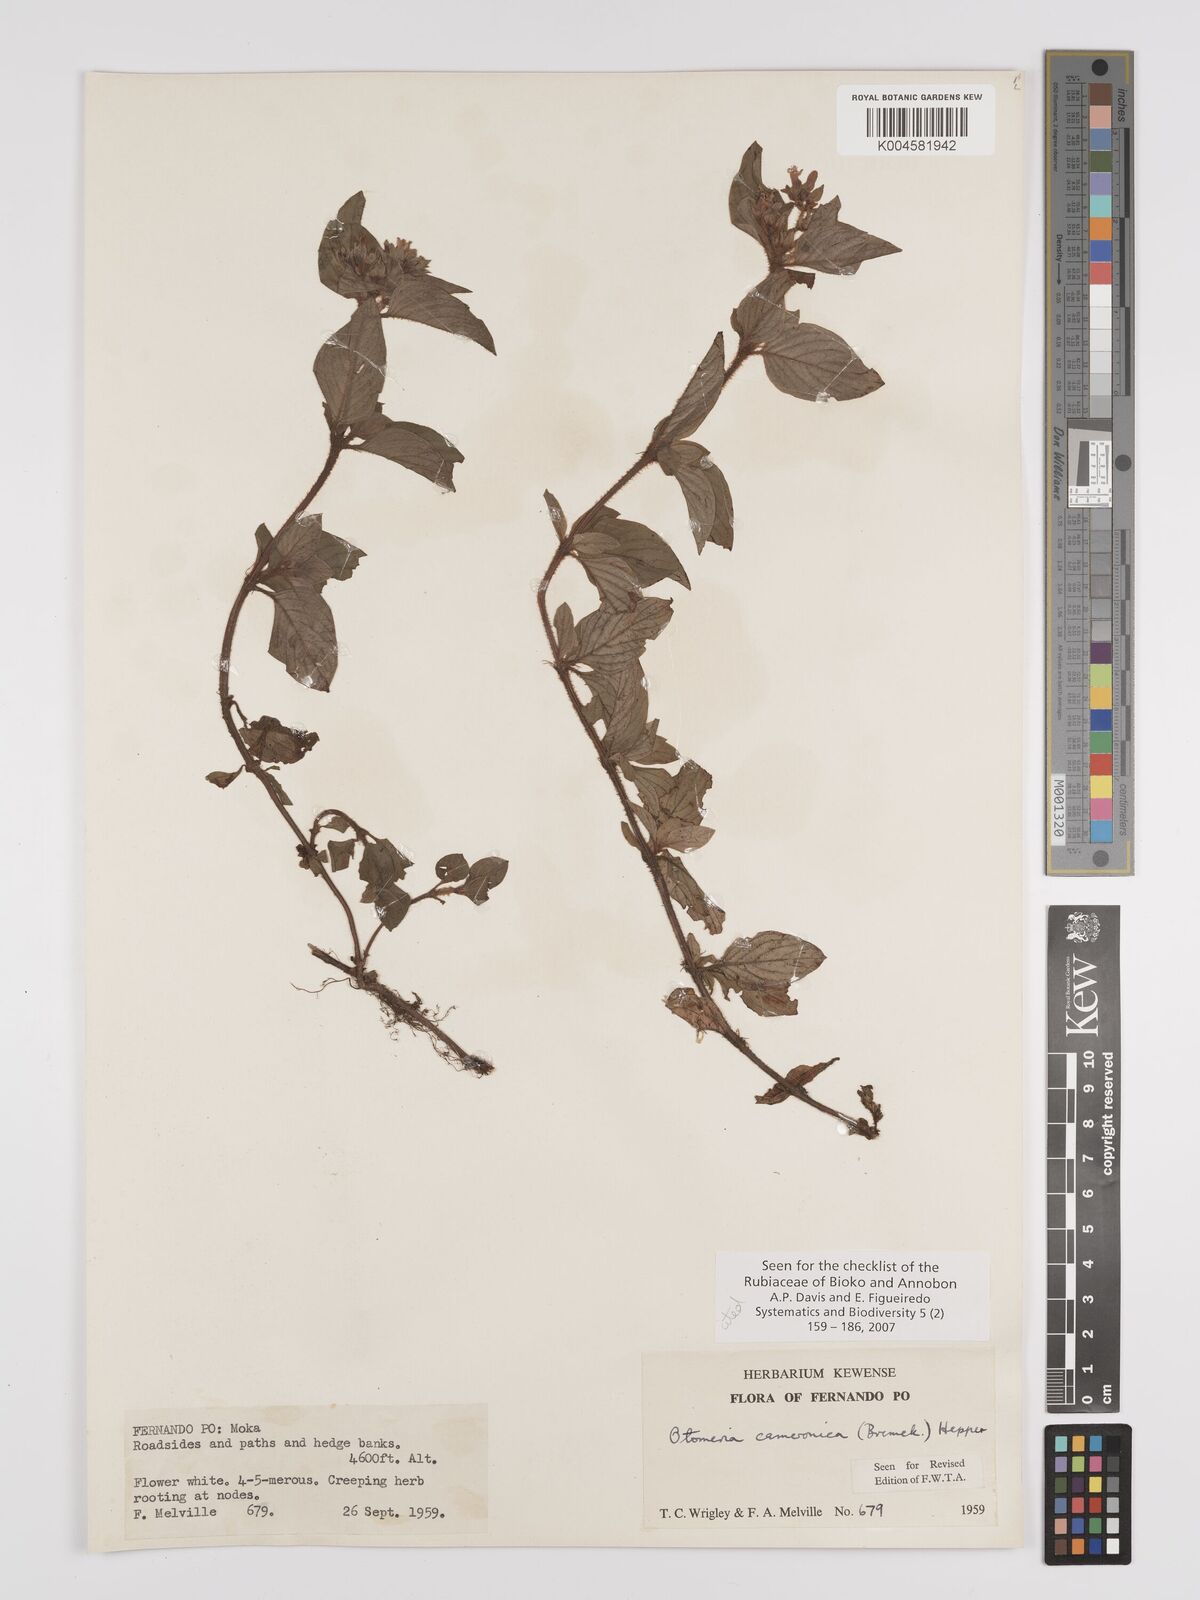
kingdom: Plantae
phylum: Tracheophyta
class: Magnoliopsida
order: Gentianales
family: Rubiaceae
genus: Otomeria
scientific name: Otomeria cameronica
